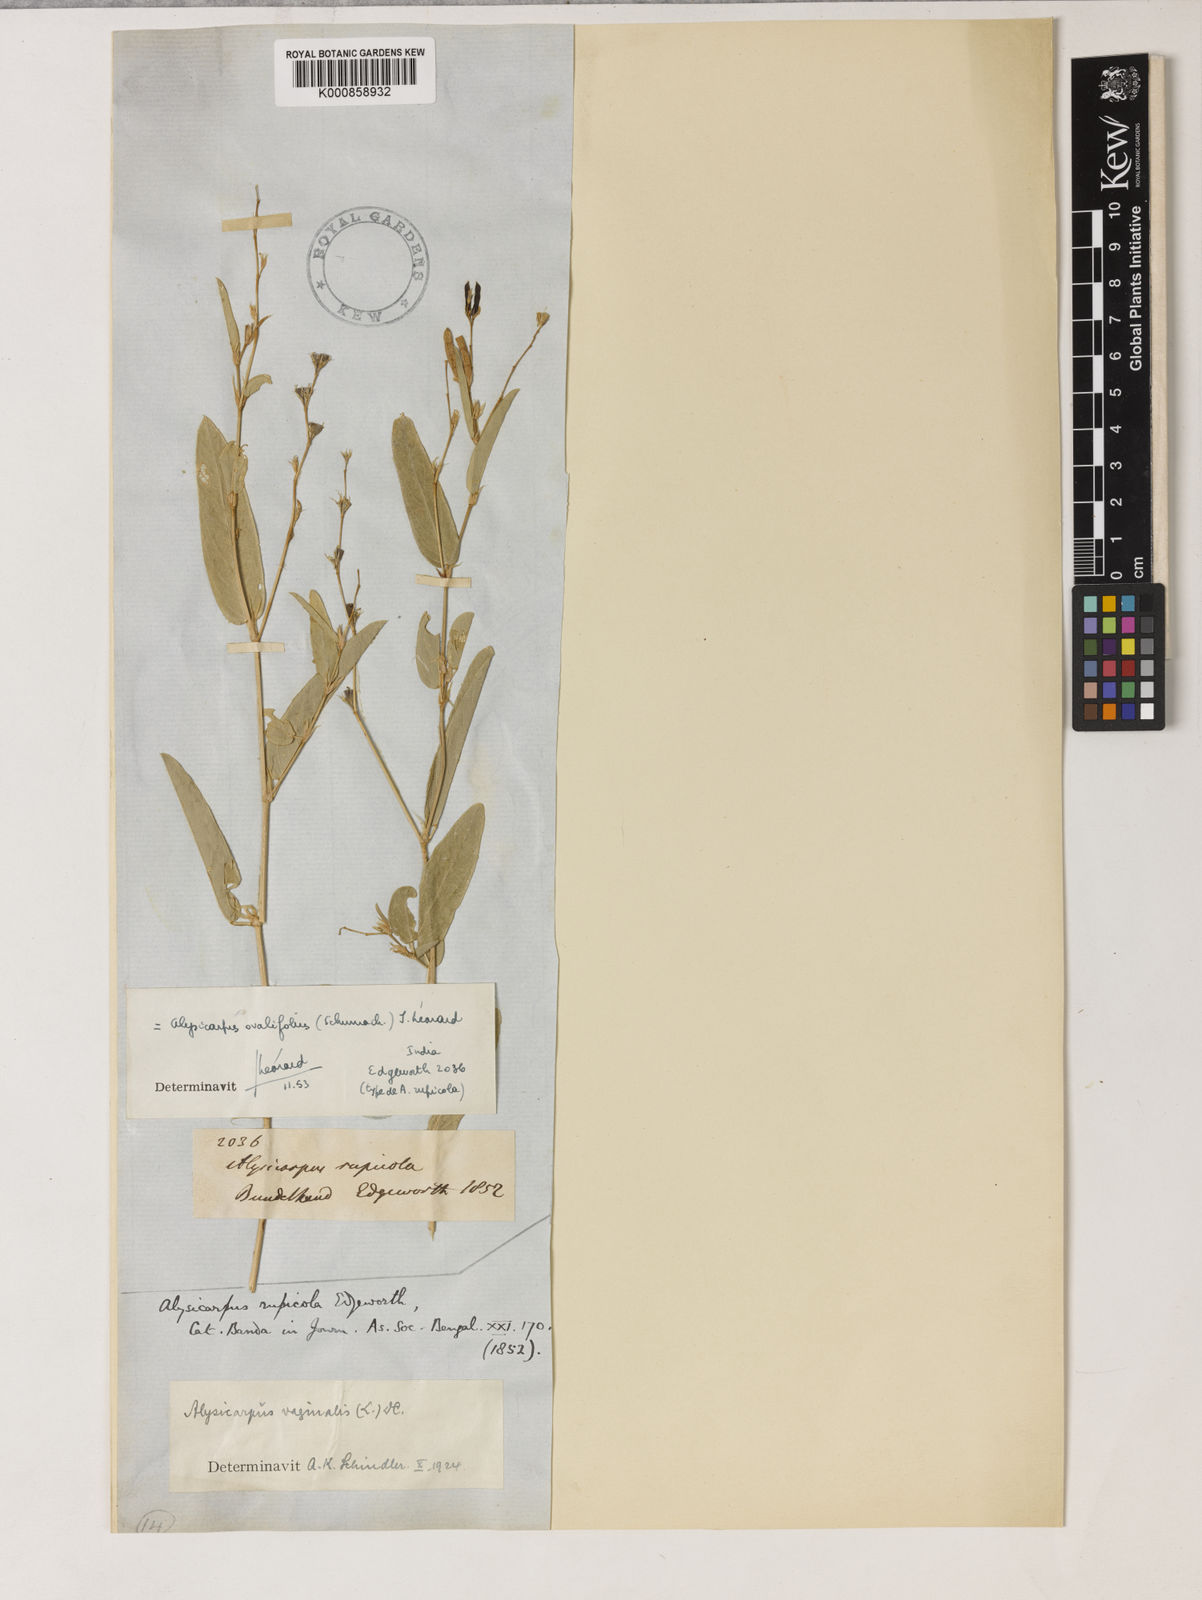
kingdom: Plantae
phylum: Tracheophyta
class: Magnoliopsida
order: Fabales
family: Fabaceae
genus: Alysicarpus
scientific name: Alysicarpus vaginalis
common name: White moneywort
